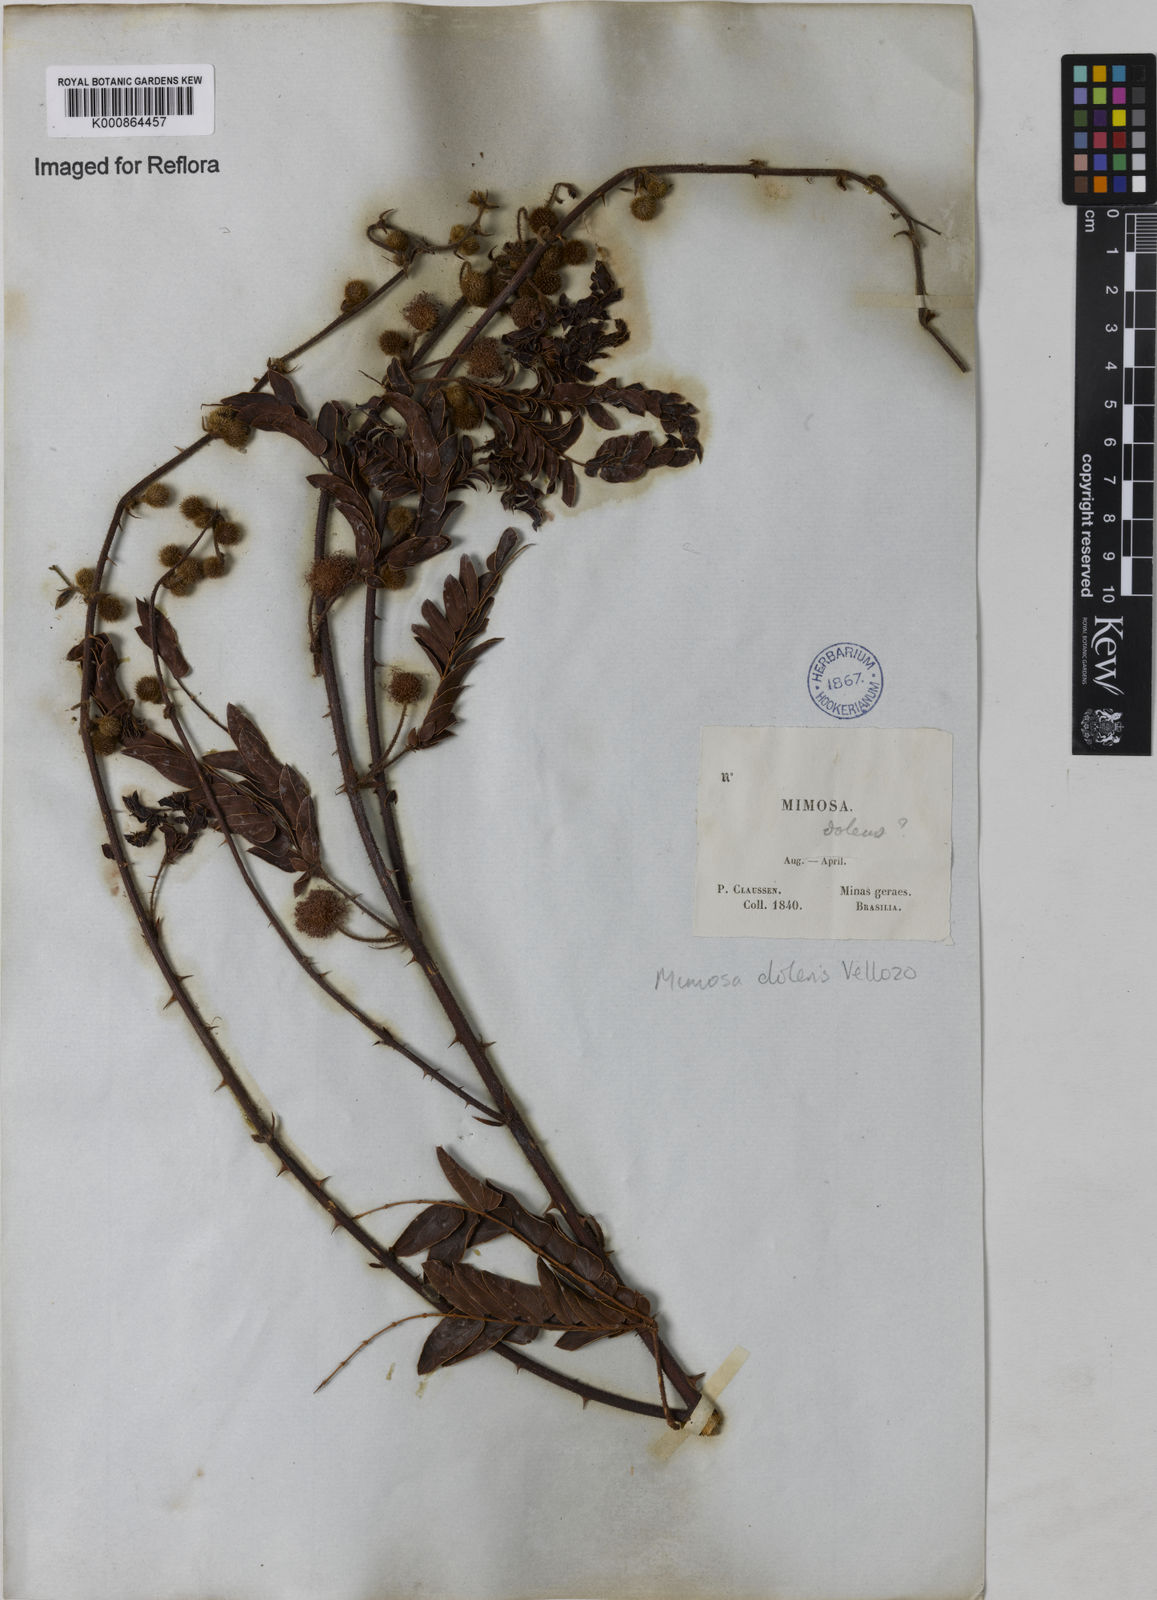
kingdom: Plantae
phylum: Tracheophyta
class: Magnoliopsida
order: Fabales
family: Fabaceae
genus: Mimosa
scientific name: Mimosa dolens
